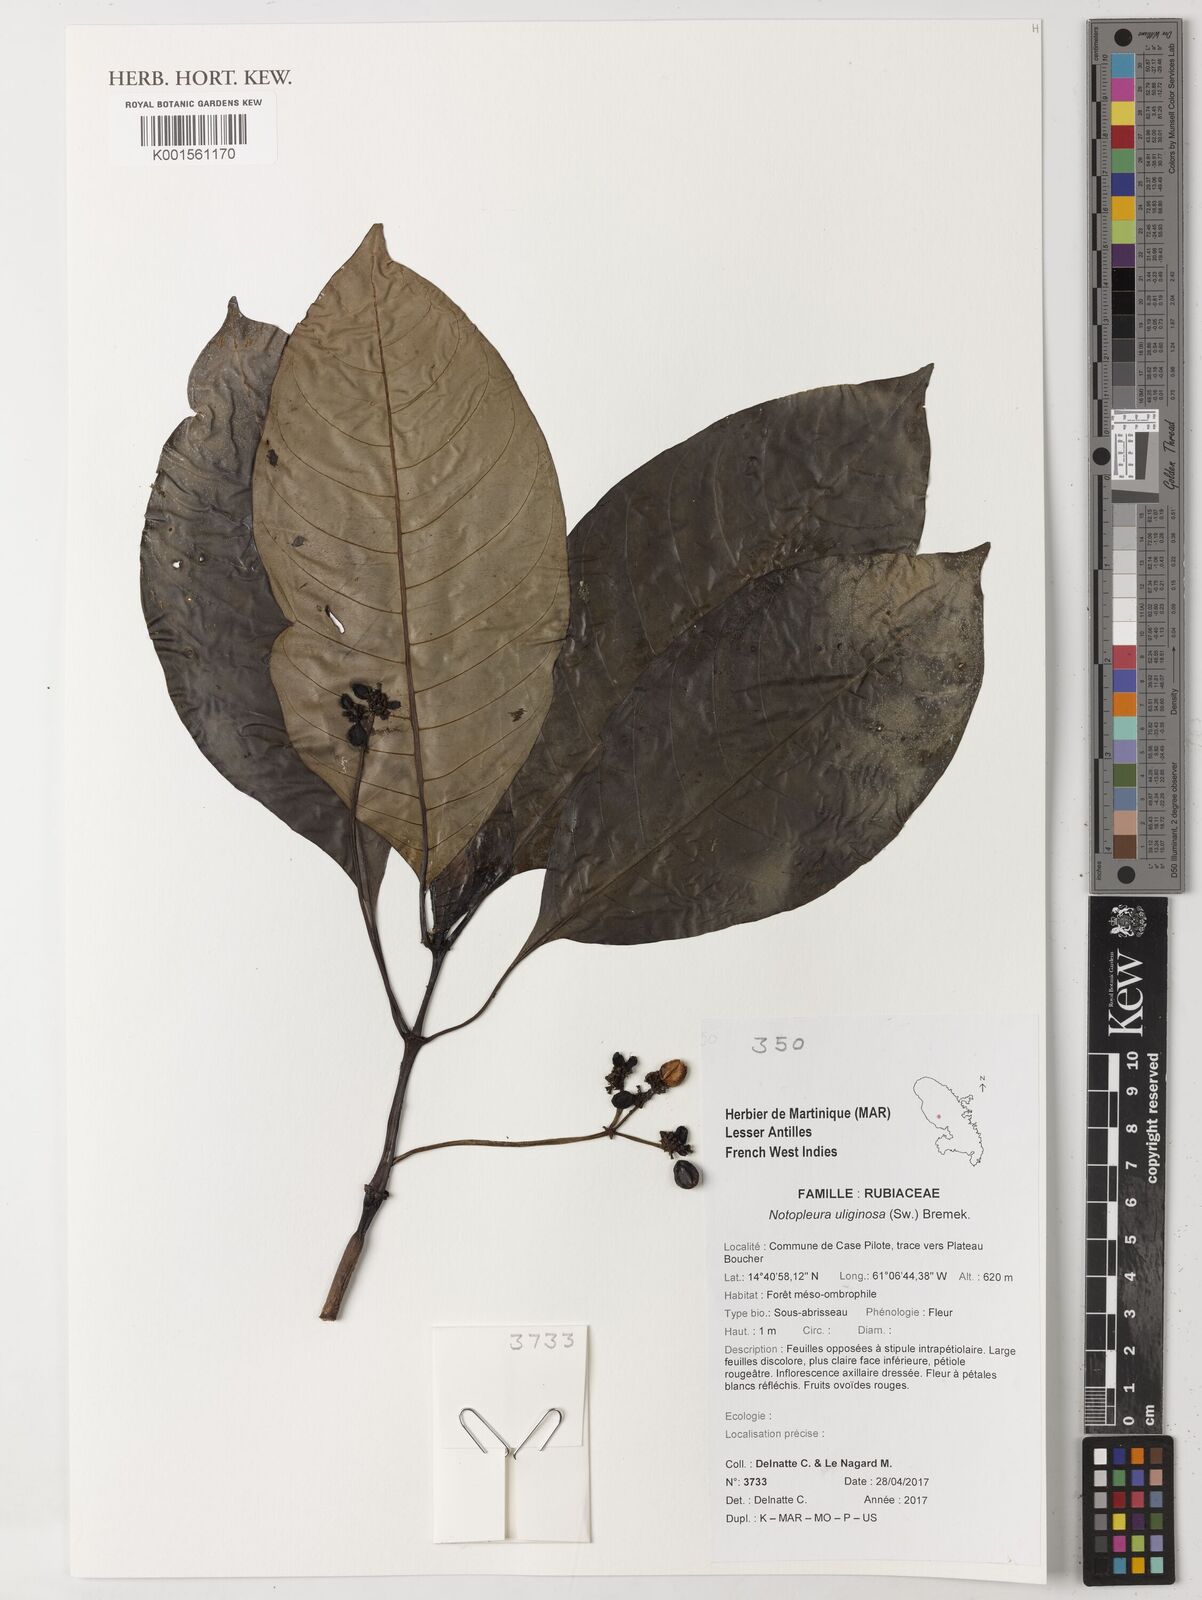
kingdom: Plantae
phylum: Tracheophyta
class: Magnoliopsida
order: Gentianales
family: Rubiaceae
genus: Notopleura
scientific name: Notopleura uliginosa
